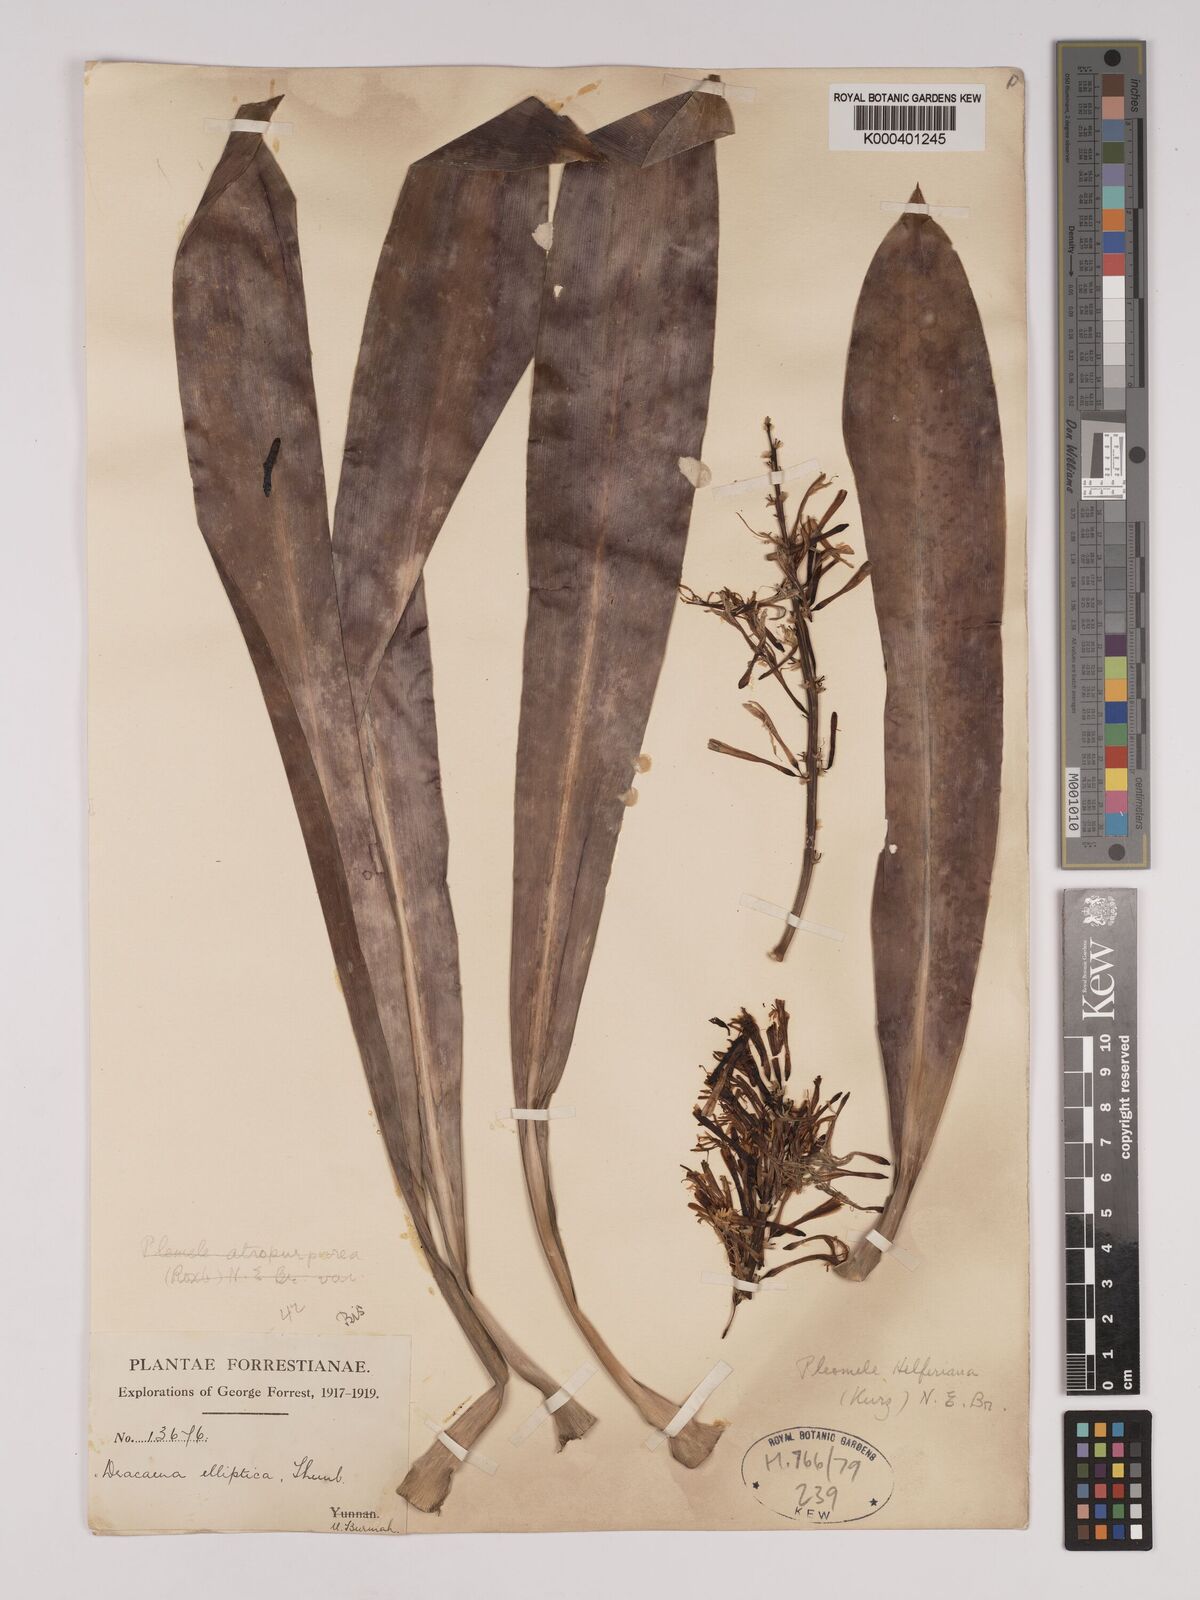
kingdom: Plantae
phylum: Tracheophyta
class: Liliopsida
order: Asparagales
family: Asparagaceae
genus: Dracaena
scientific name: Dracaena griffithii
